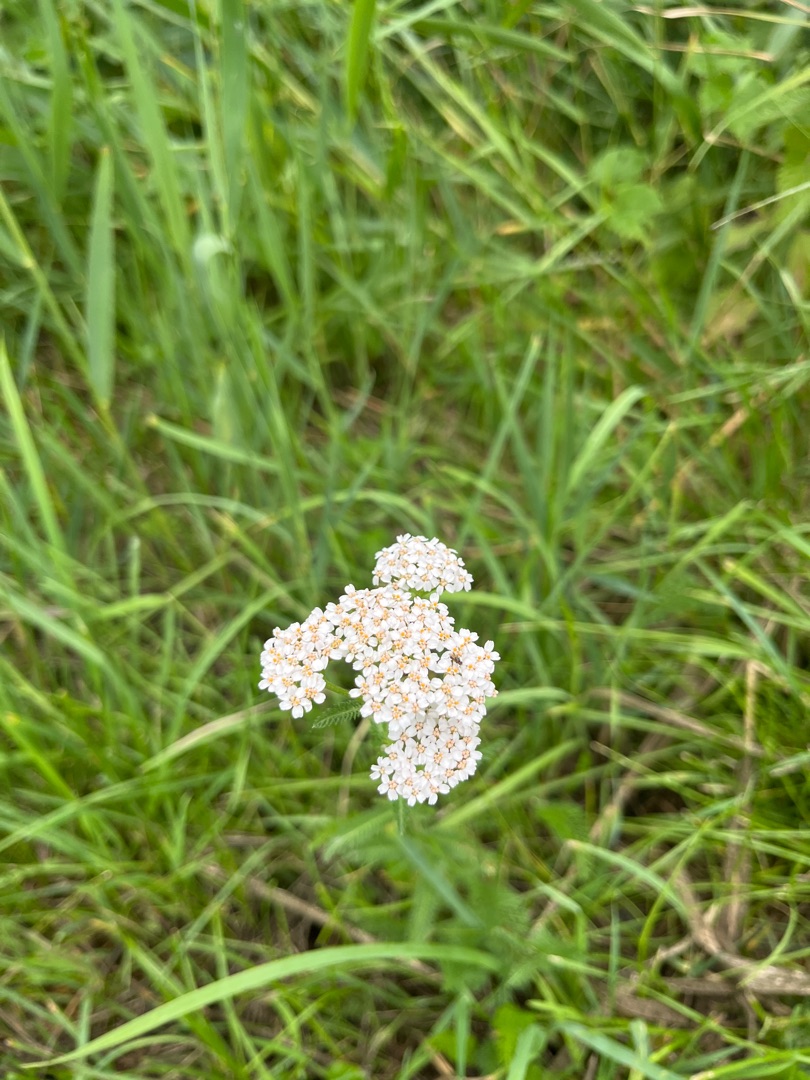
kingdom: Plantae
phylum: Tracheophyta
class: Magnoliopsida
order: Asterales
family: Asteraceae
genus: Achillea
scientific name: Achillea millefolium
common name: Almindelig røllike
